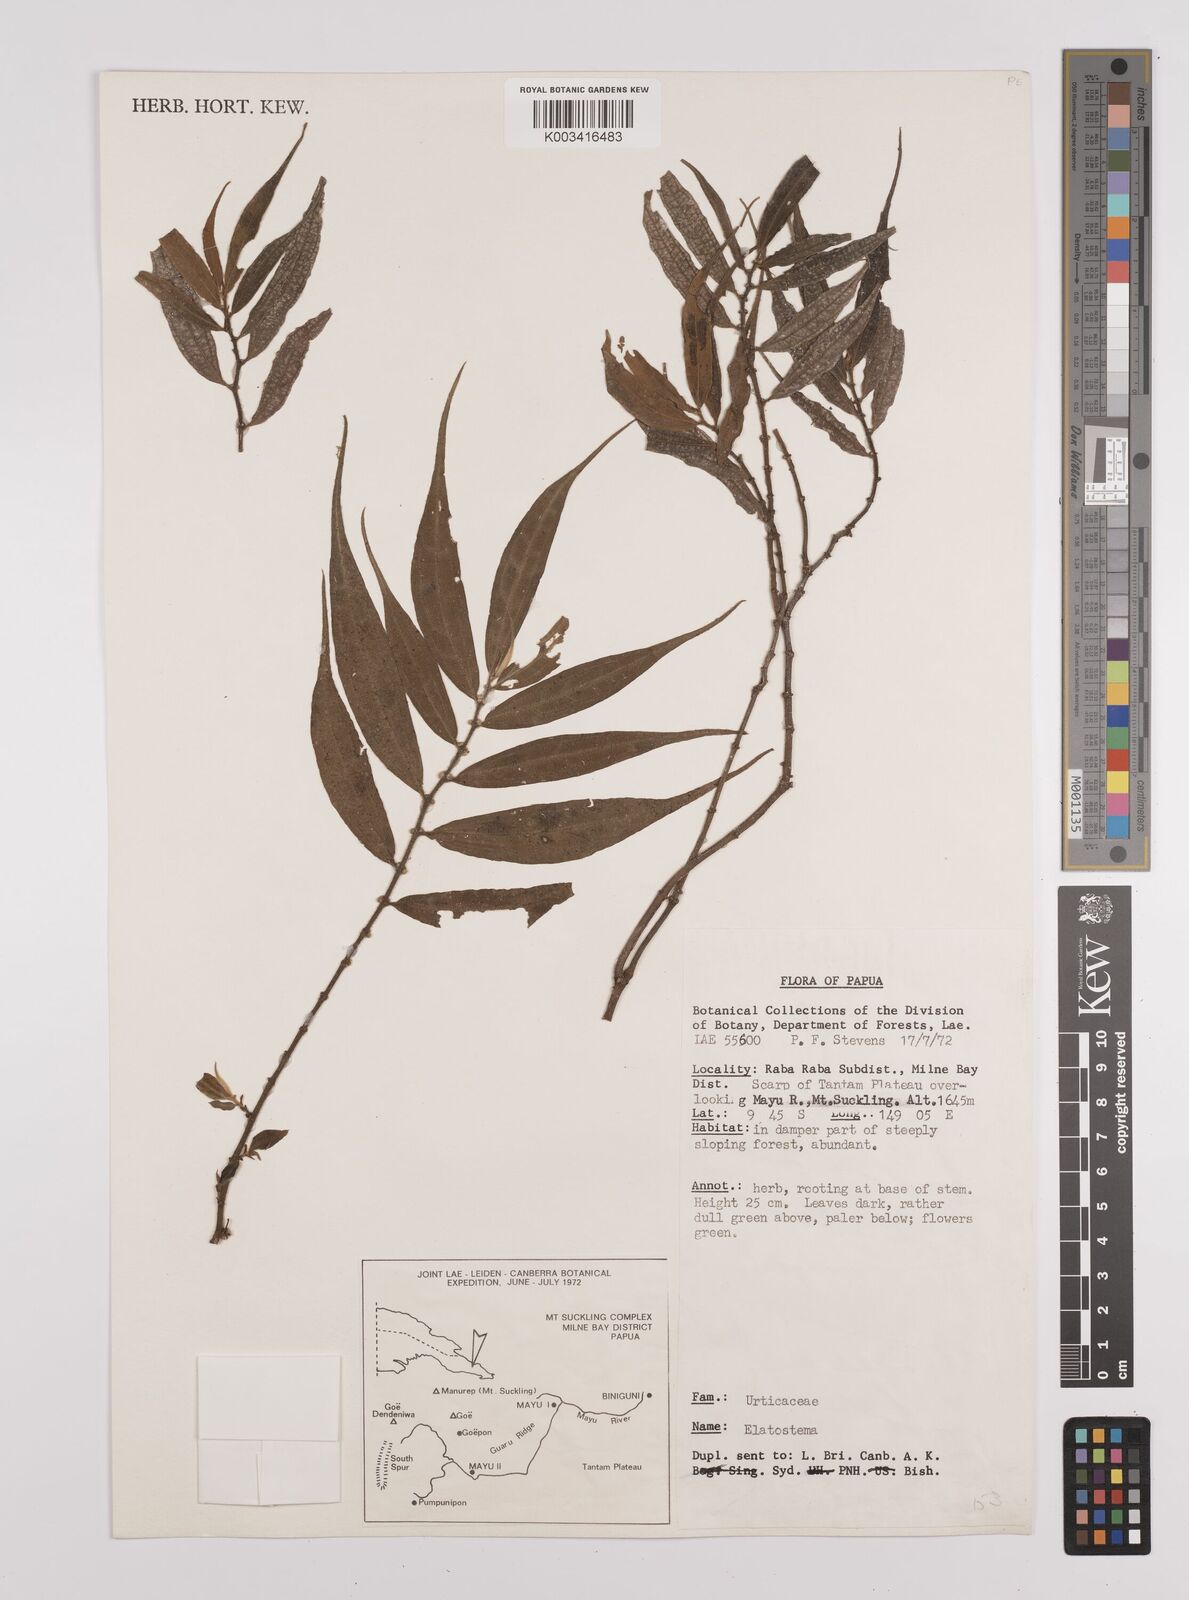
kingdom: Plantae
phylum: Tracheophyta
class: Magnoliopsida
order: Rosales
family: Urticaceae
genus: Elatostema
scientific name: Elatostema
